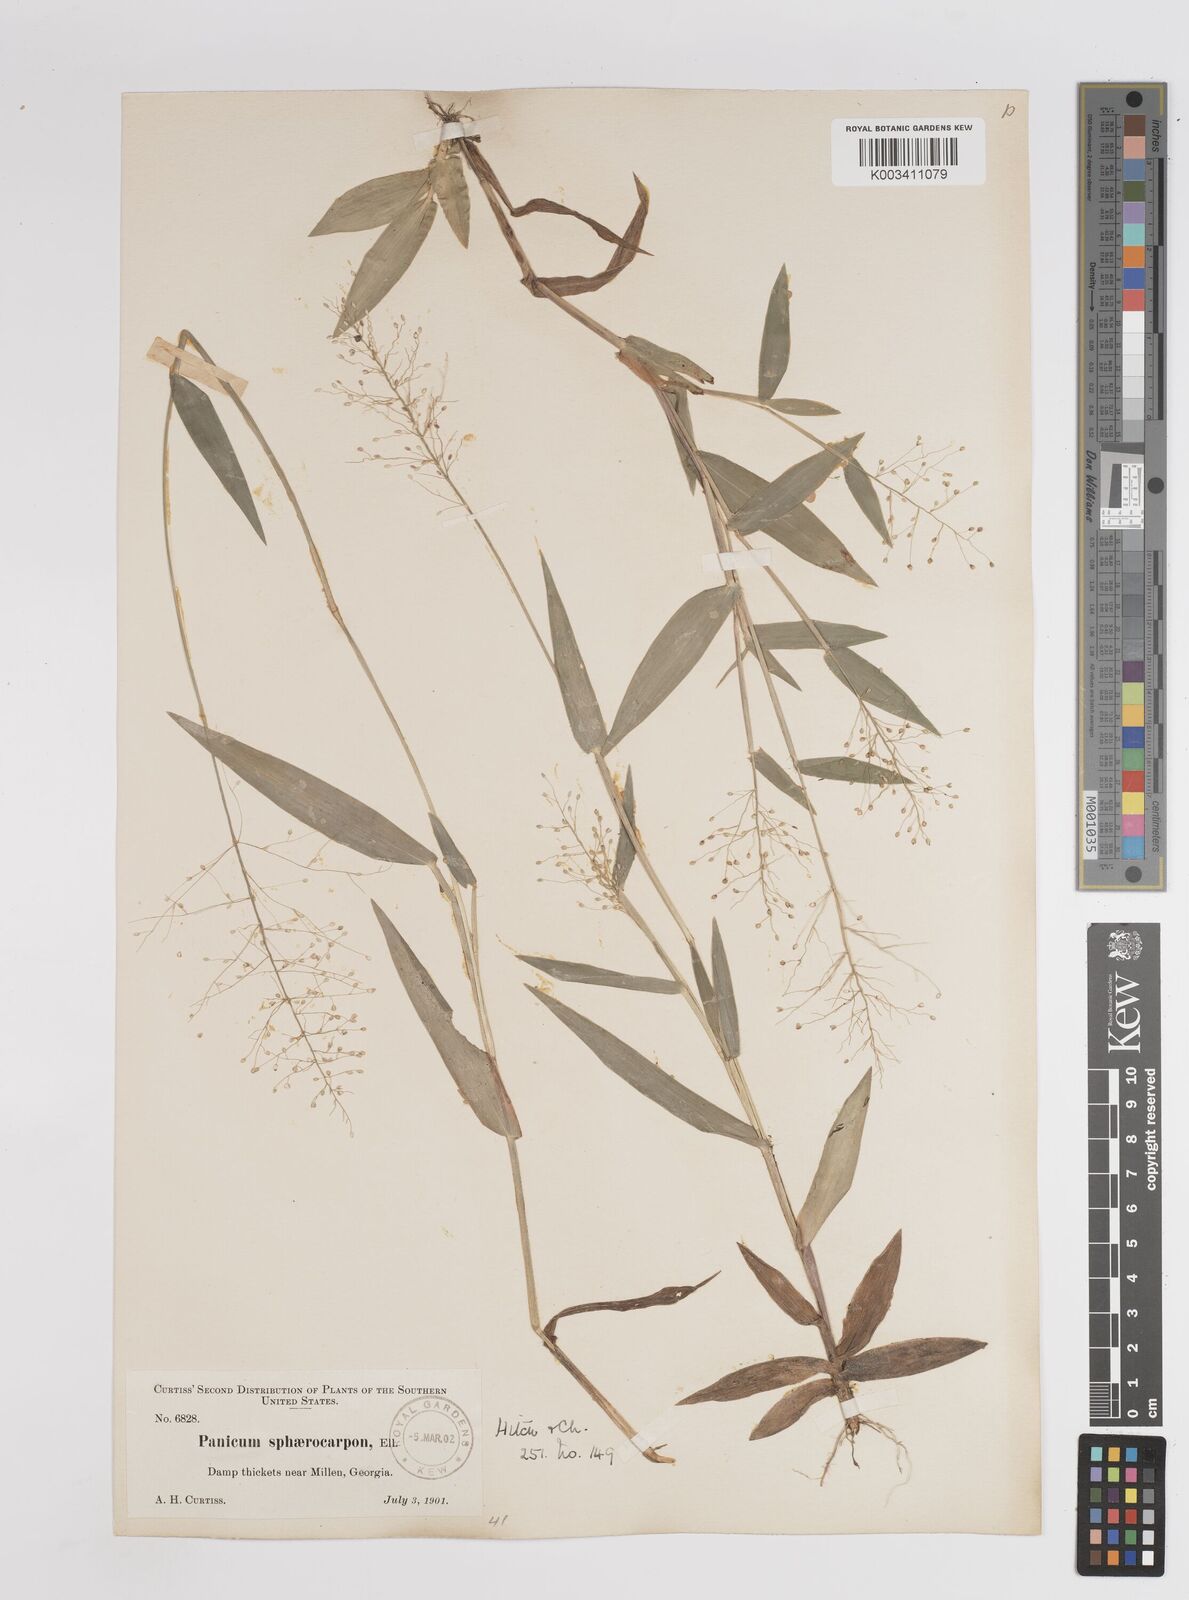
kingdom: Plantae
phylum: Tracheophyta
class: Liliopsida
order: Poales
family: Poaceae
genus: Dichanthelium
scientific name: Dichanthelium sphaerocarpon
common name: Round-fruited panicgrass
